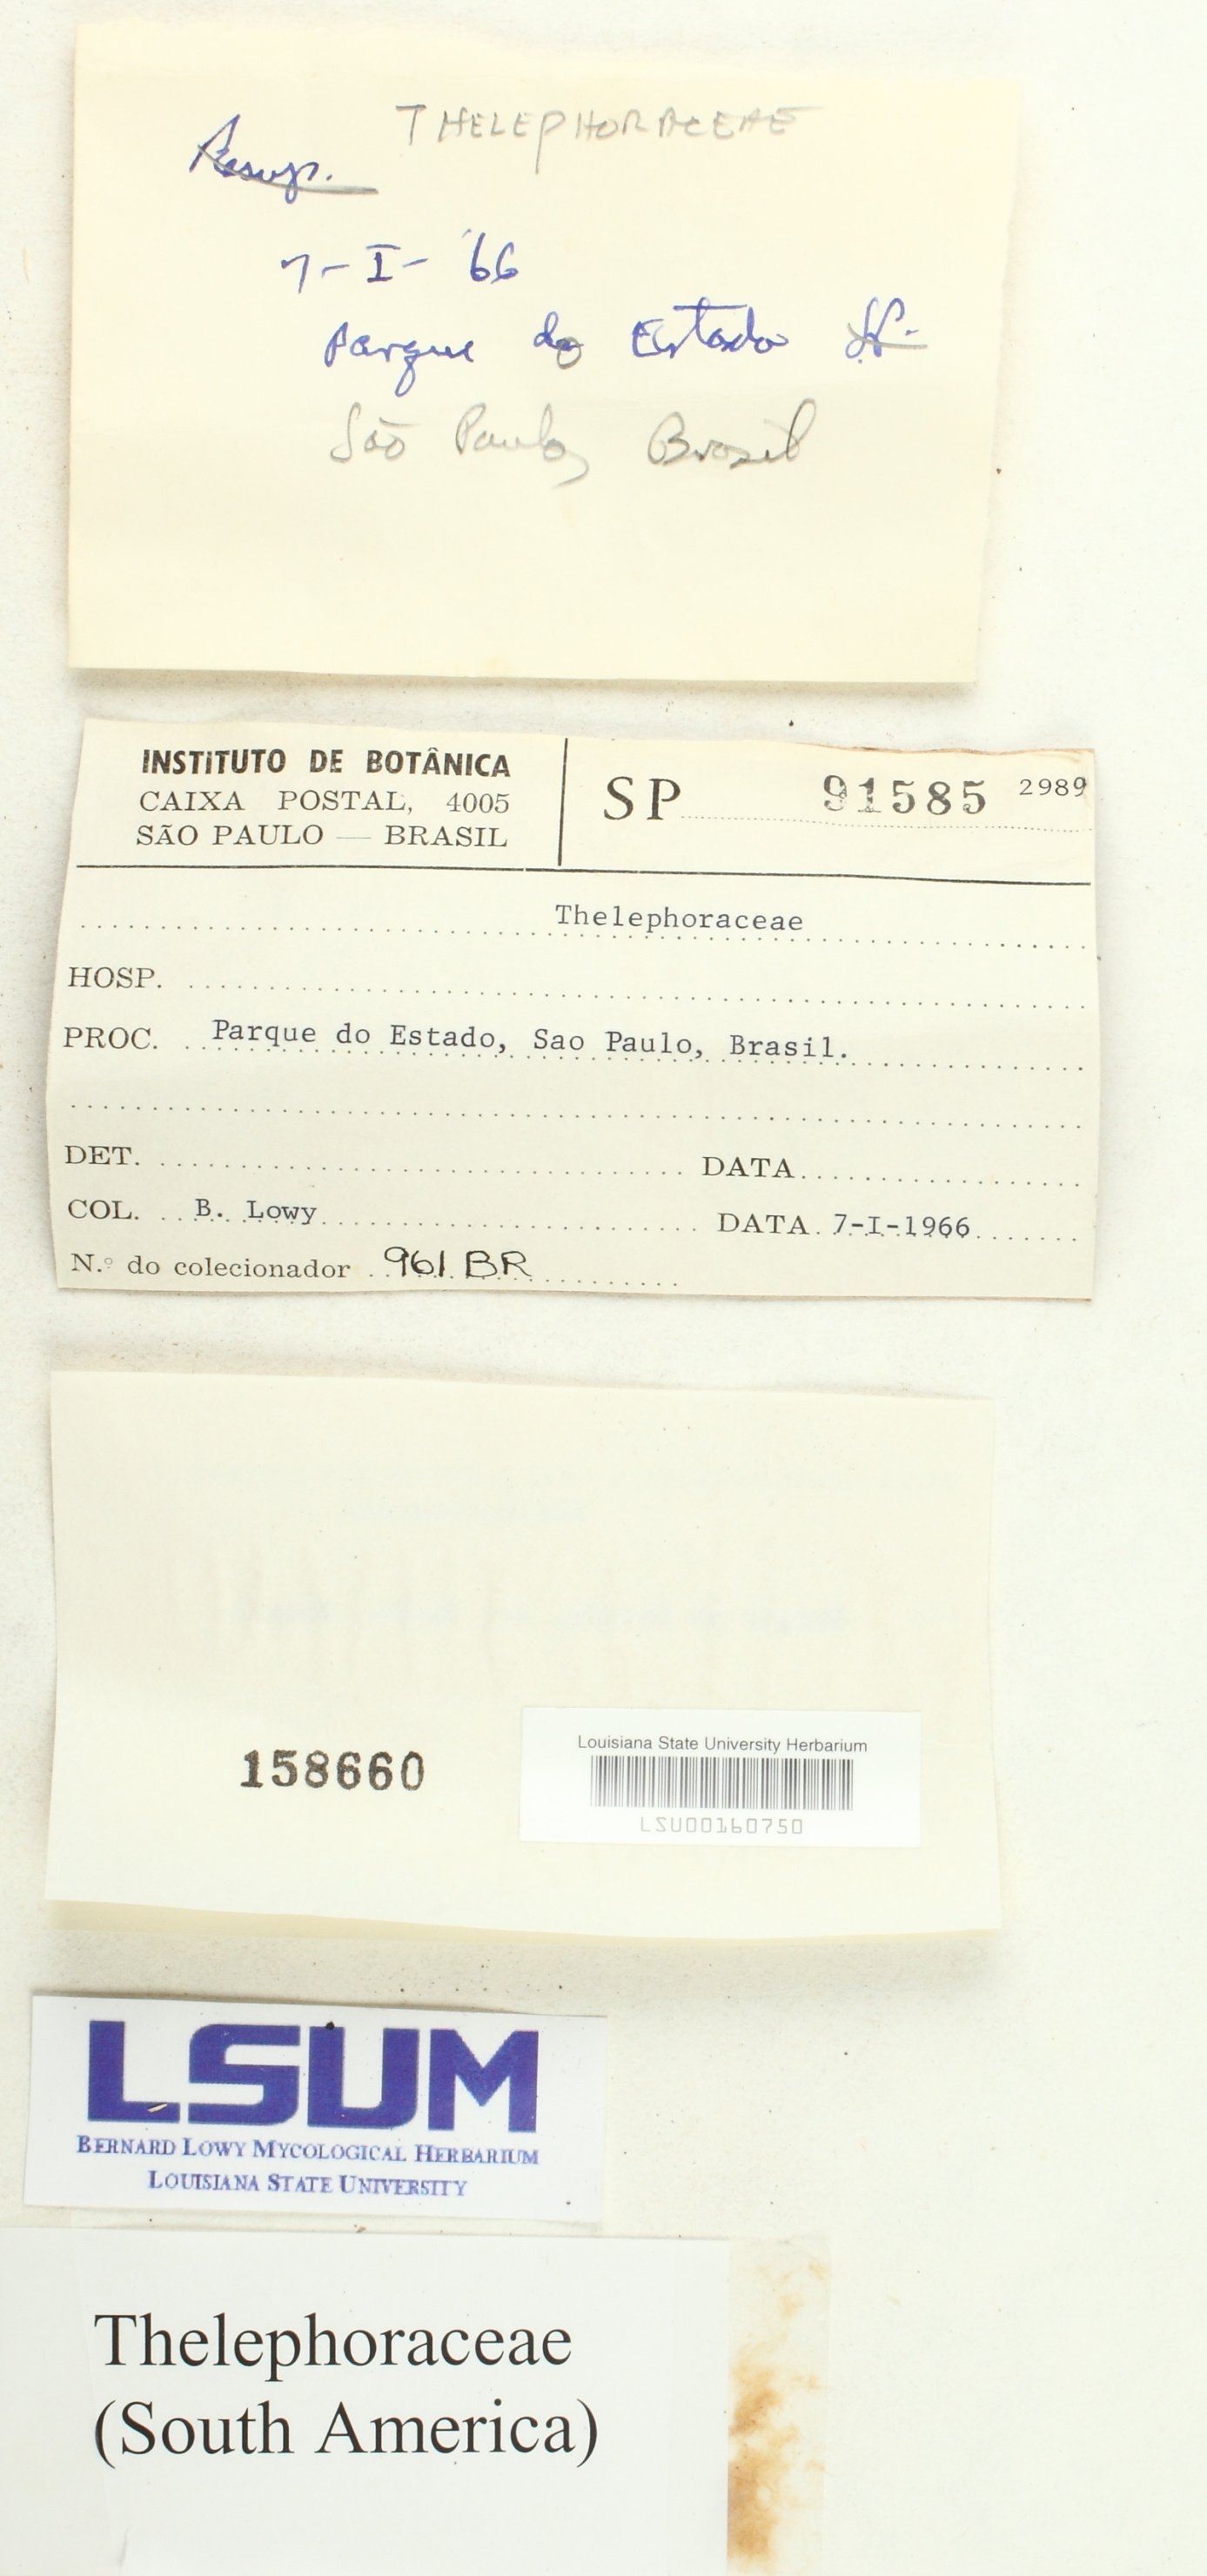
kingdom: Fungi
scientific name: Fungi
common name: Fungi
